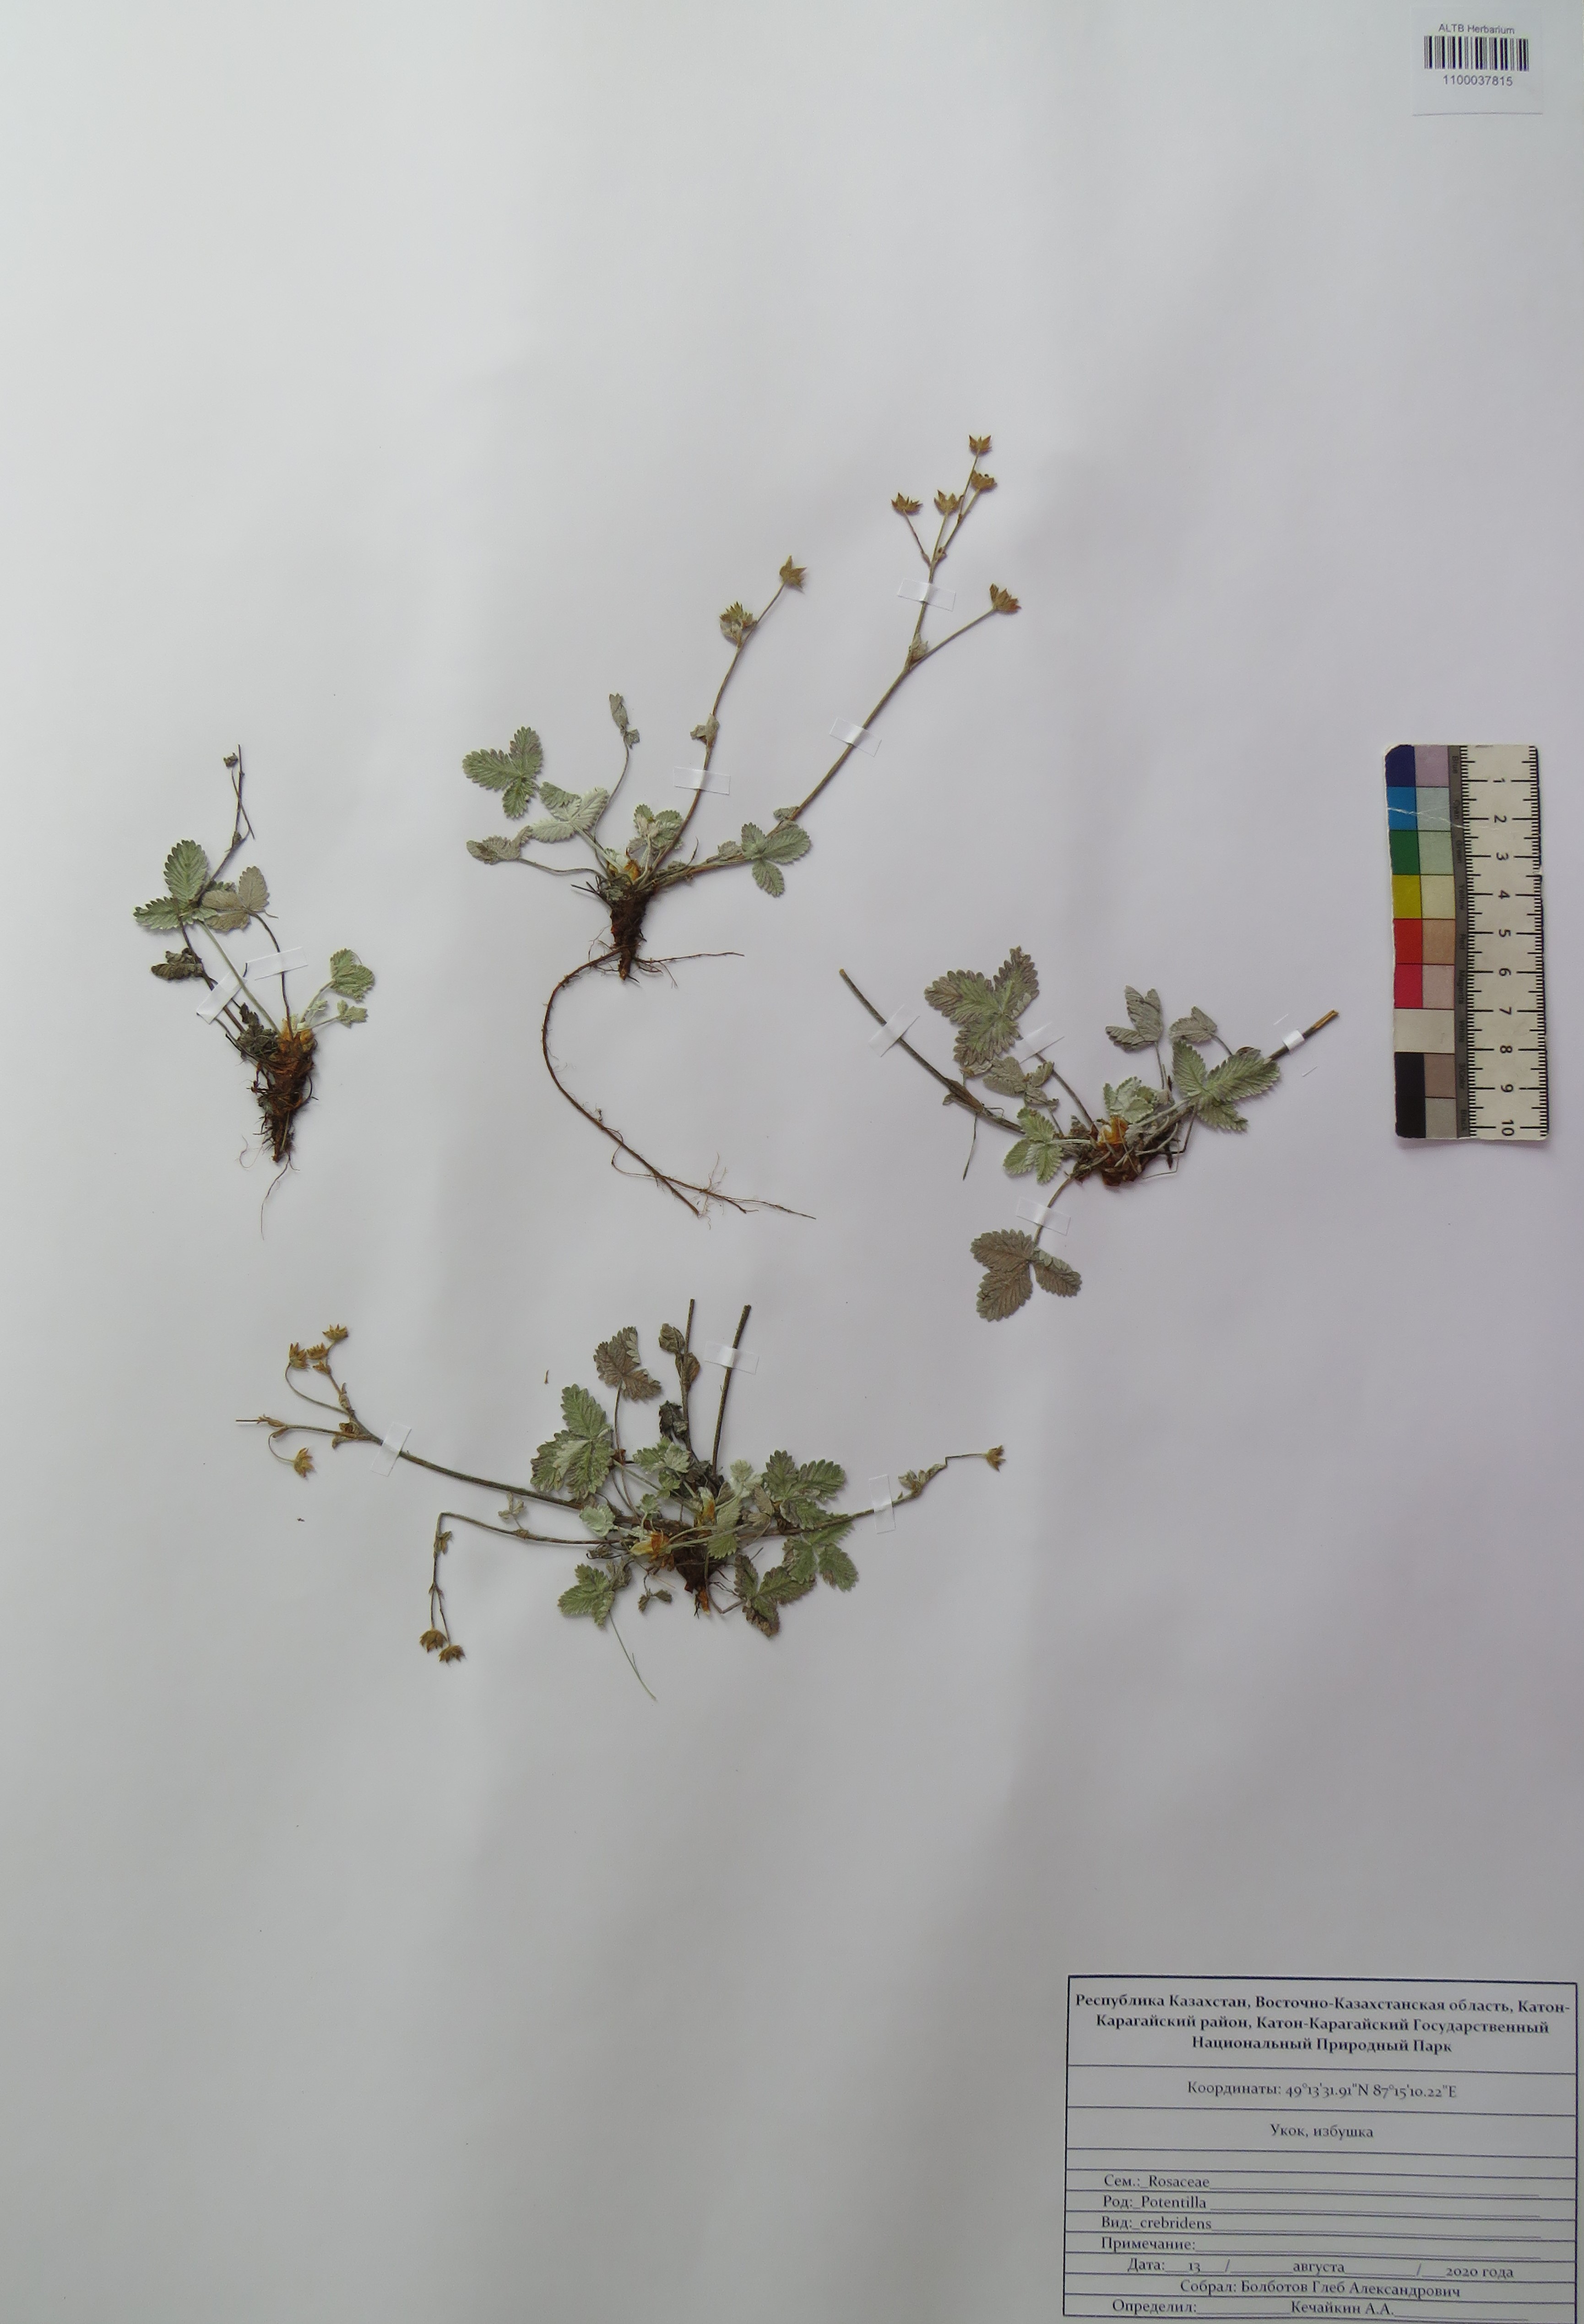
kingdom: Plantae
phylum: Tracheophyta
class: Magnoliopsida
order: Rosales
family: Rosaceae
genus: Potentilla
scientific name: Potentilla crebridens
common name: Congested cinquefoil
